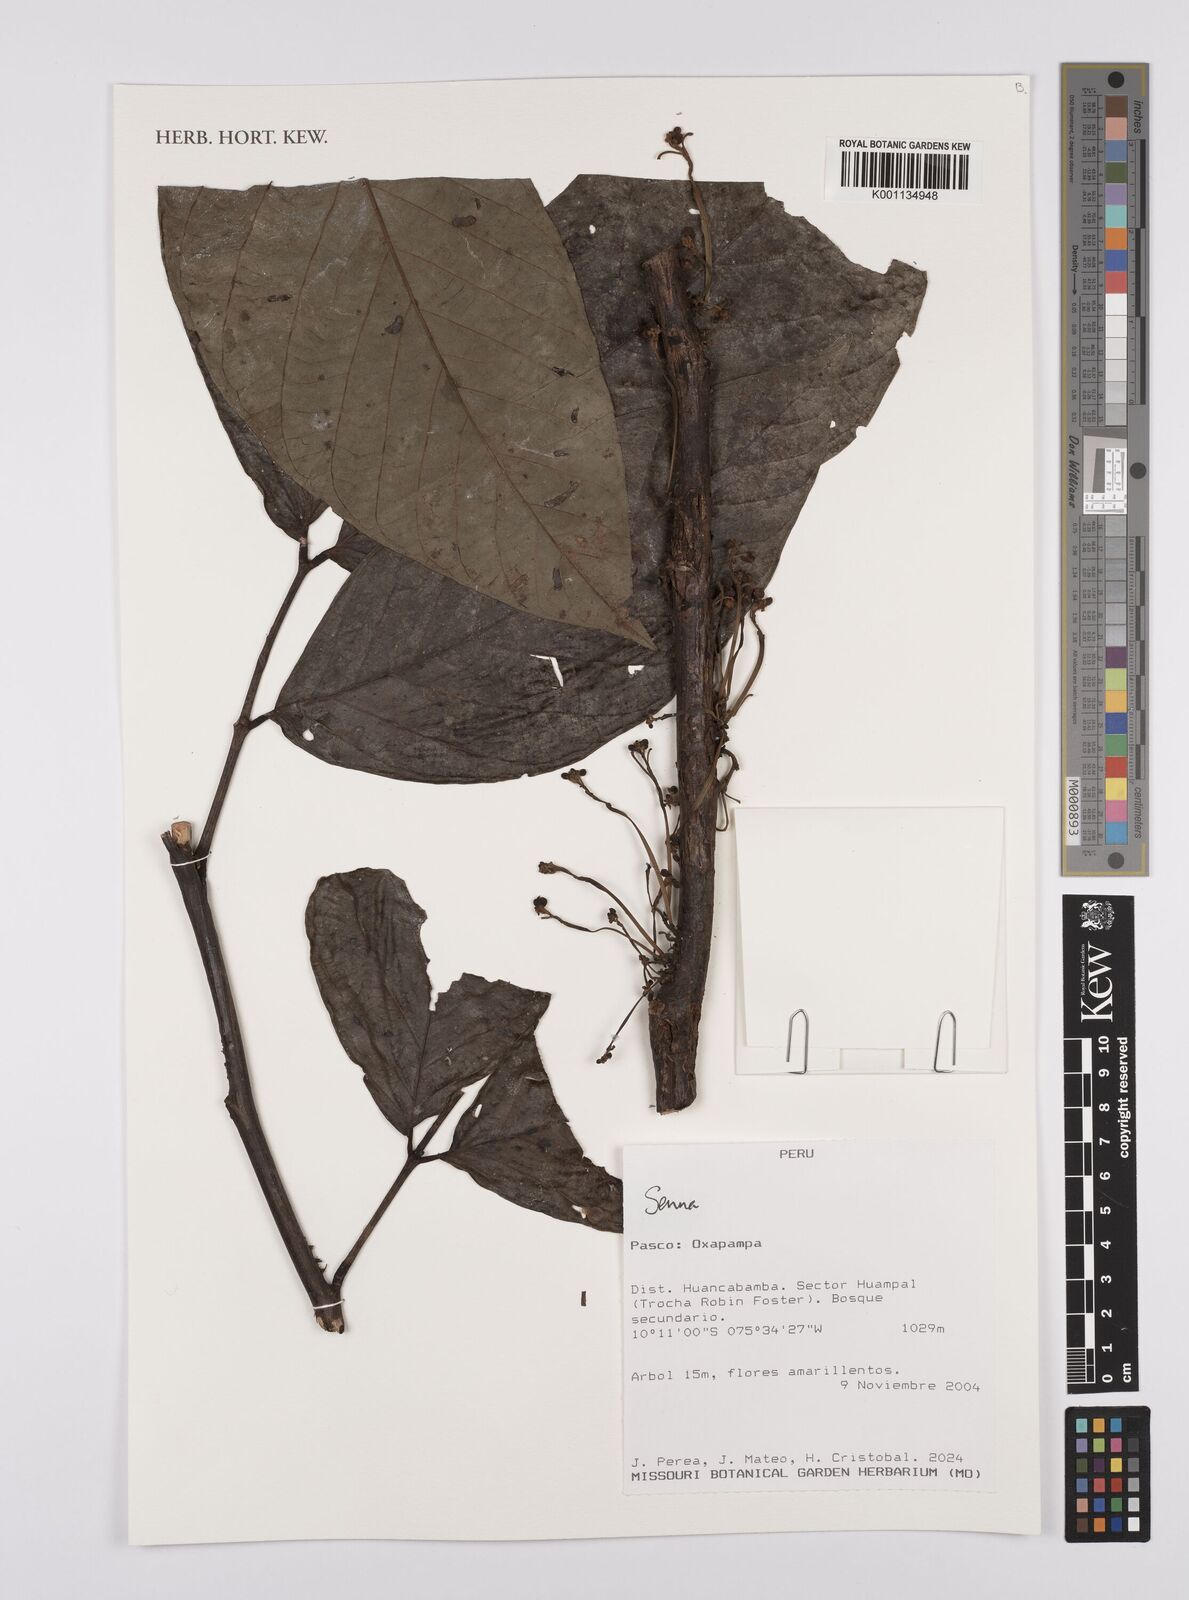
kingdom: Plantae
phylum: Tracheophyta
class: Magnoliopsida
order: Fabales
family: Fabaceae
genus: Senna
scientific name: Senna
